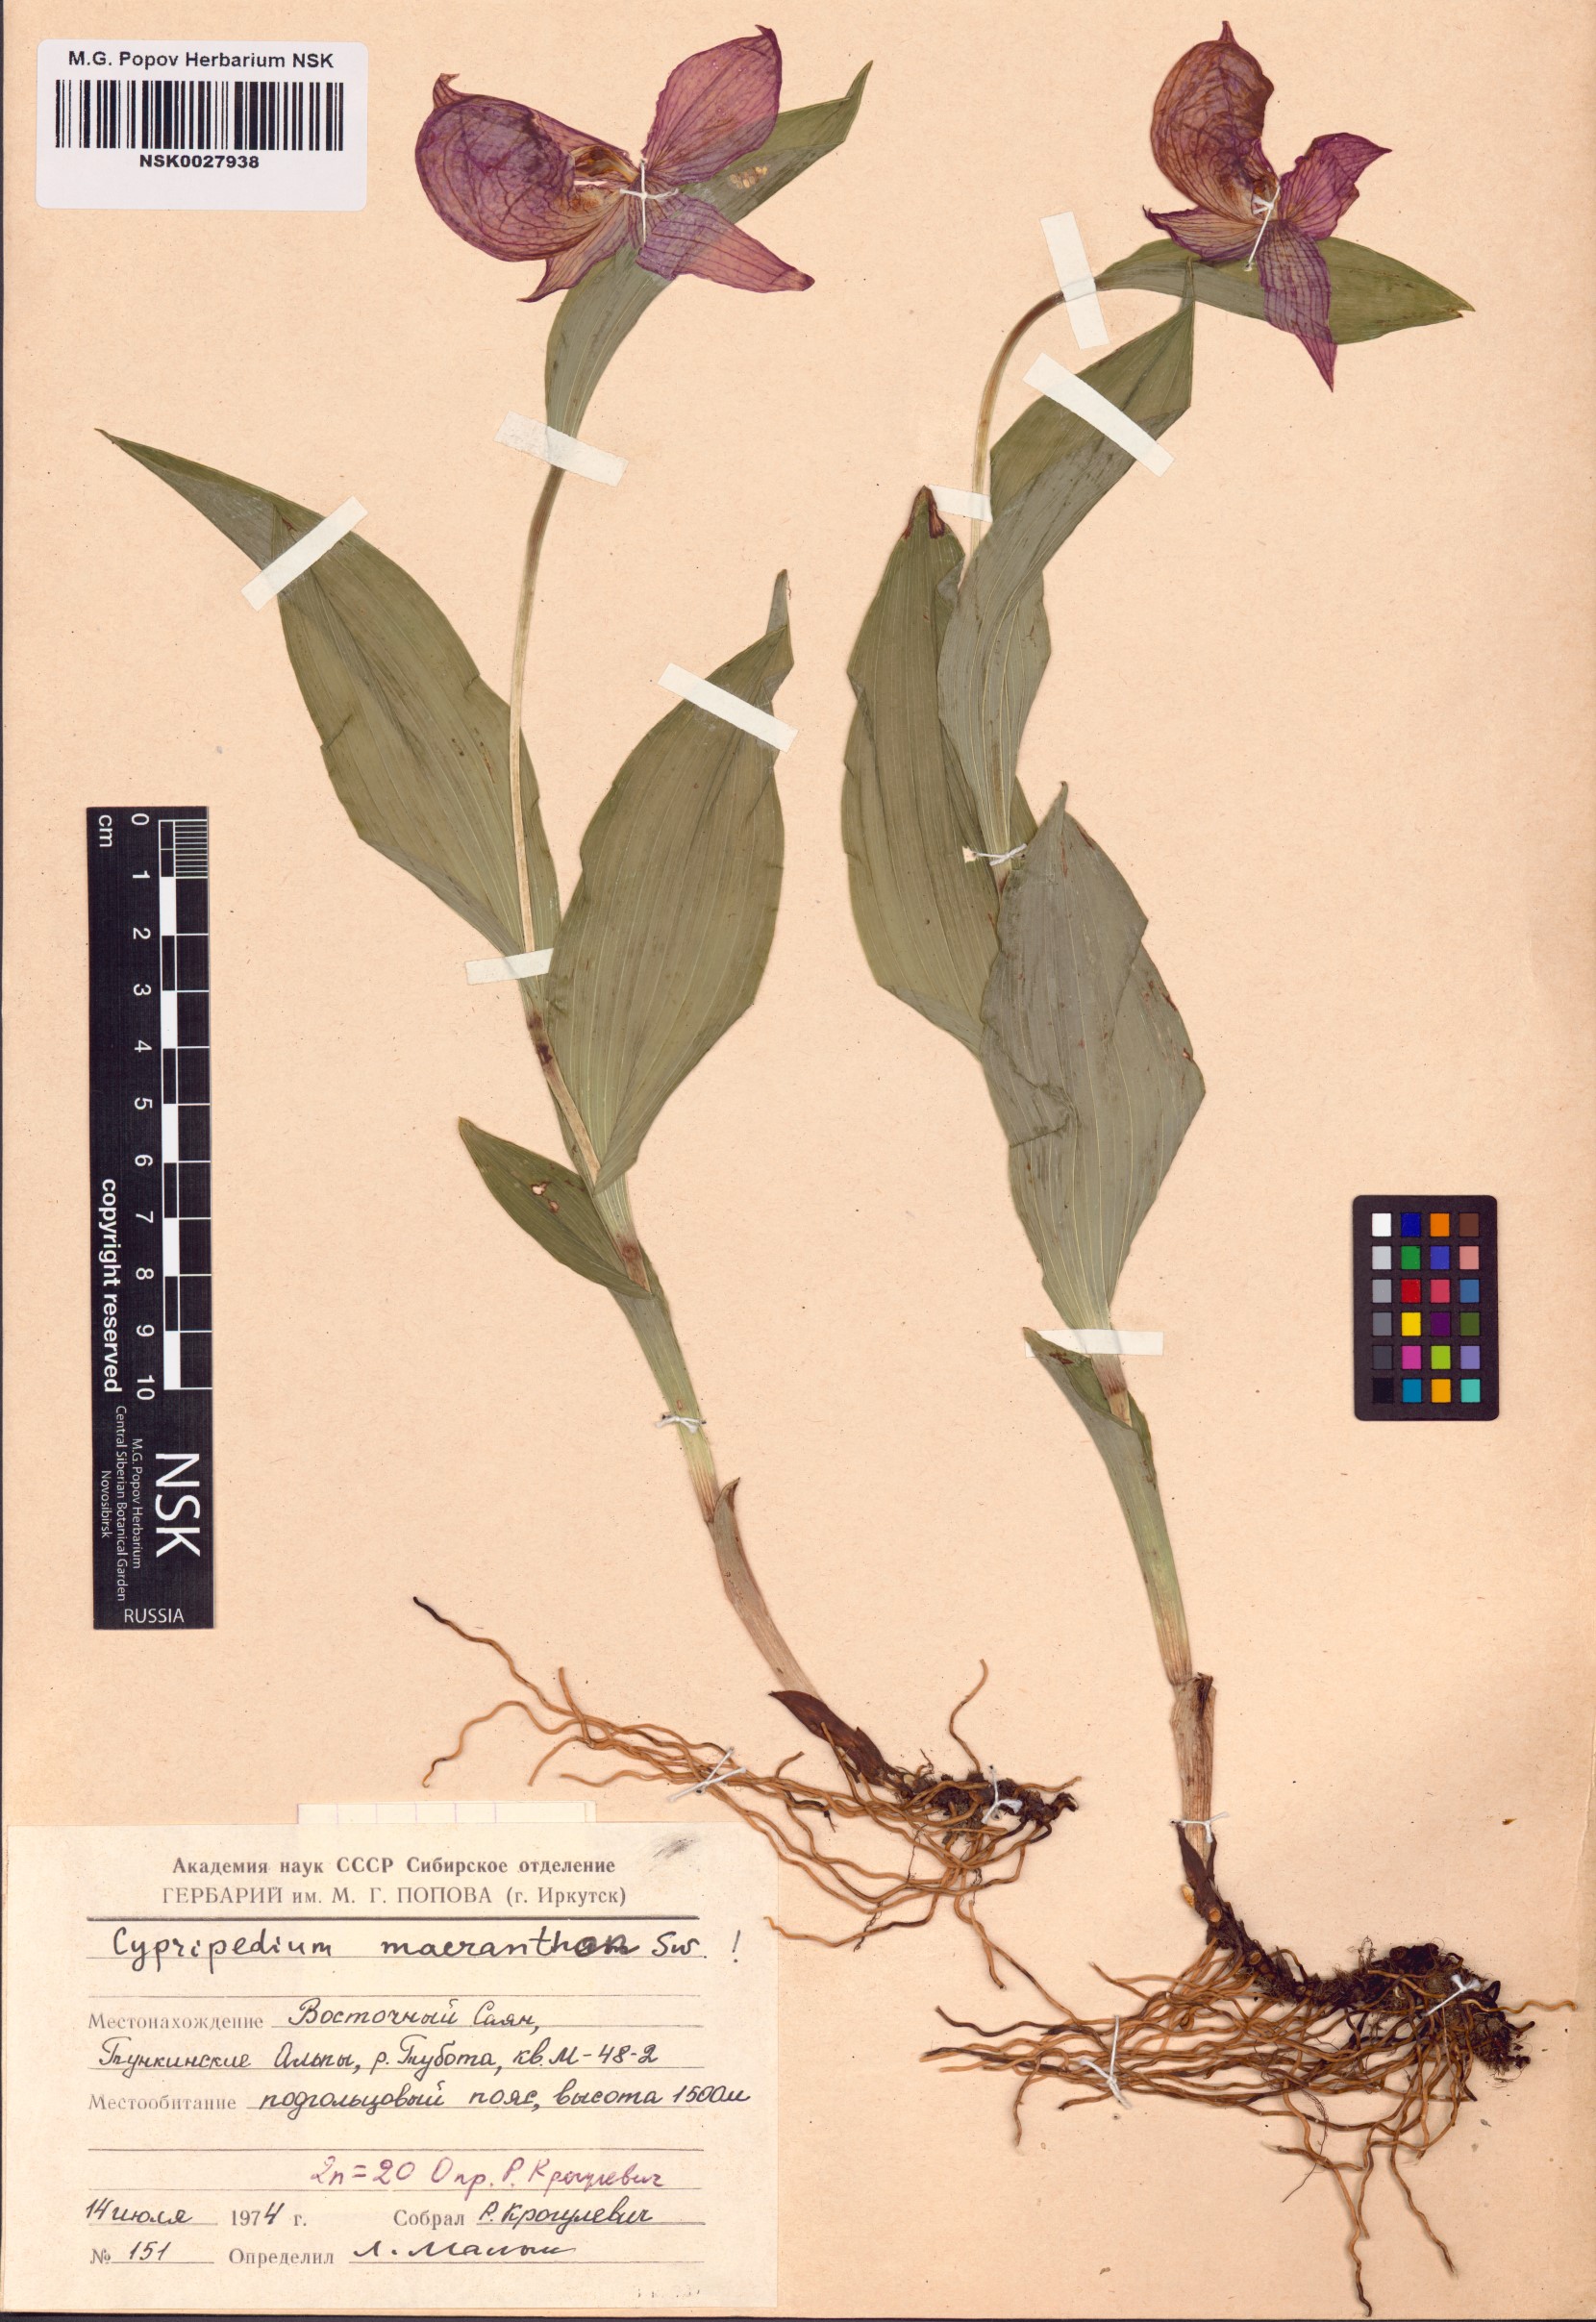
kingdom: Plantae
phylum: Tracheophyta
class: Liliopsida
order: Asparagales
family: Orchidaceae
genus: Cypripedium
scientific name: Cypripedium macranthos
